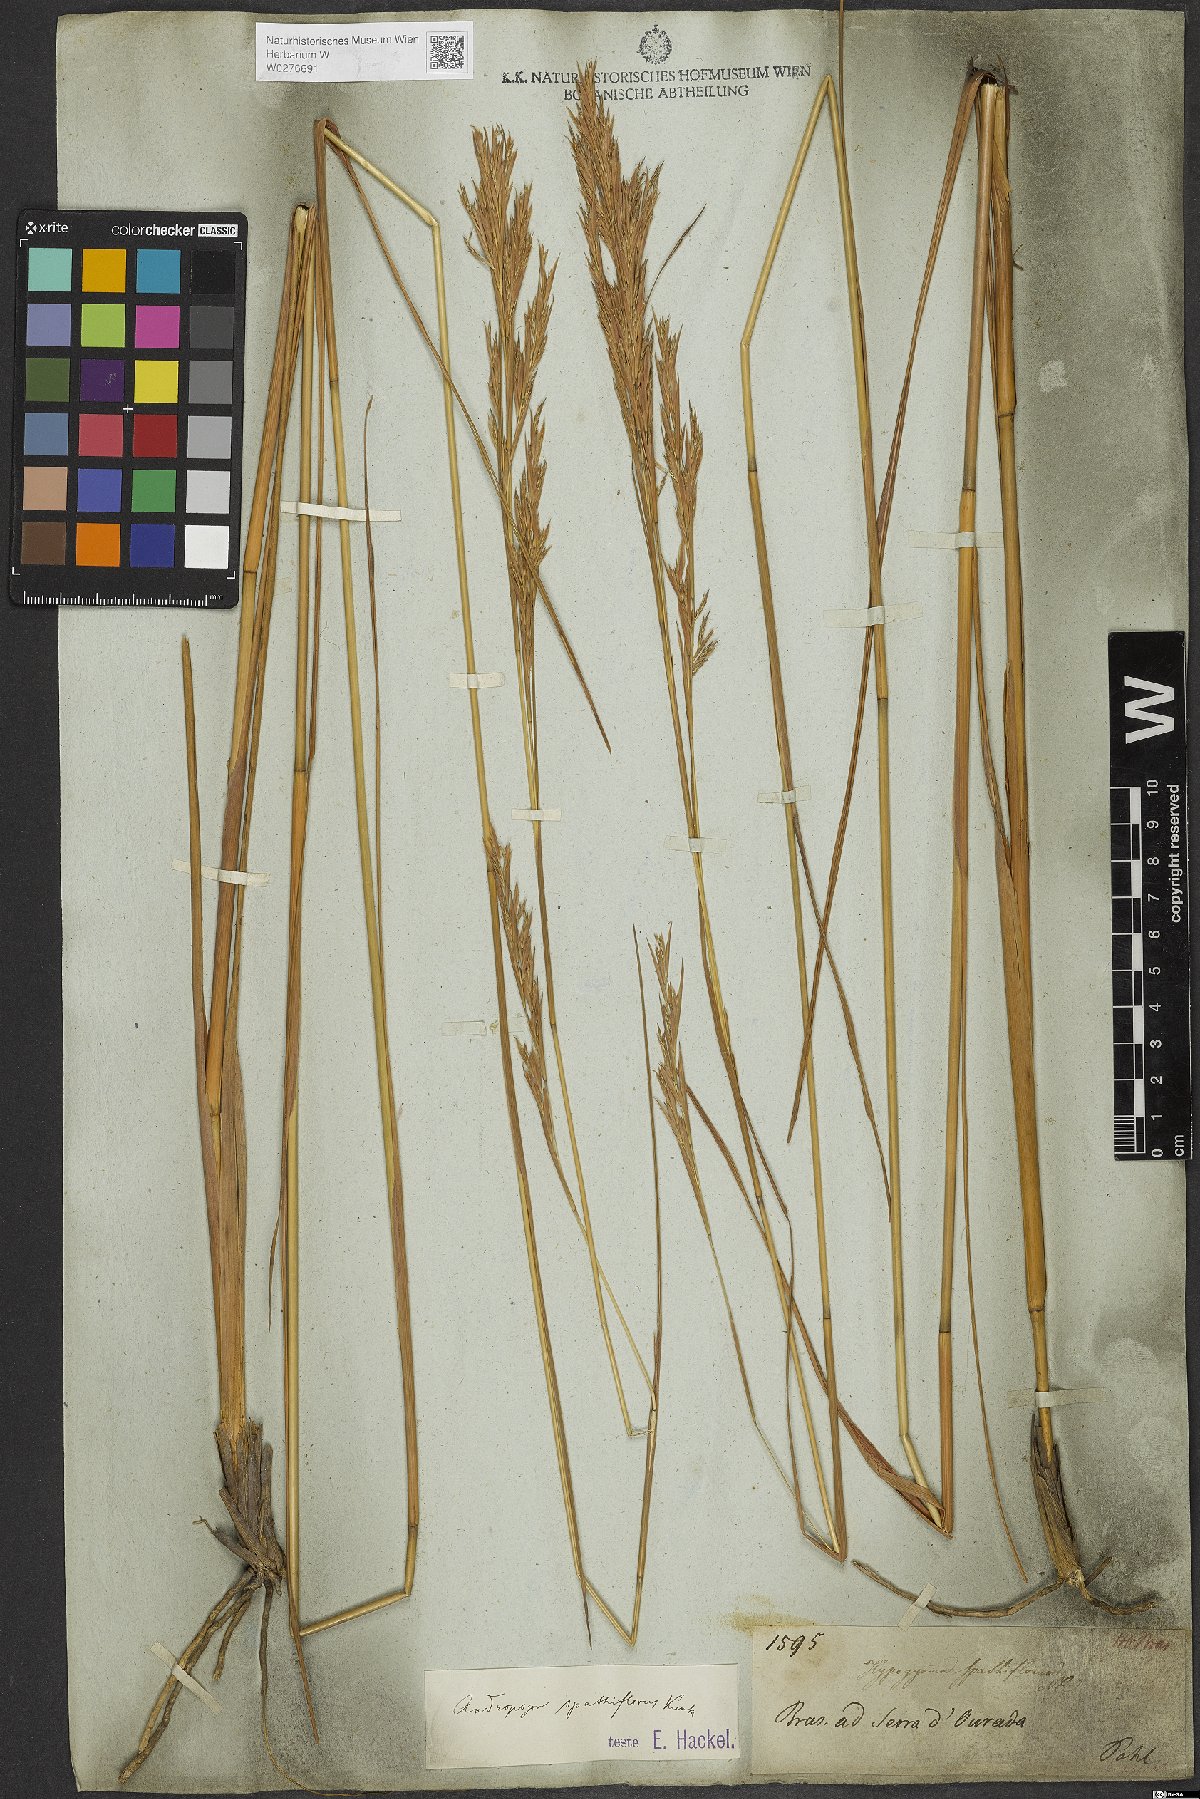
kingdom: Plantae
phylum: Tracheophyta
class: Liliopsida
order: Poales
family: Poaceae
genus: Andropogon
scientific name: Andropogon virgatus
